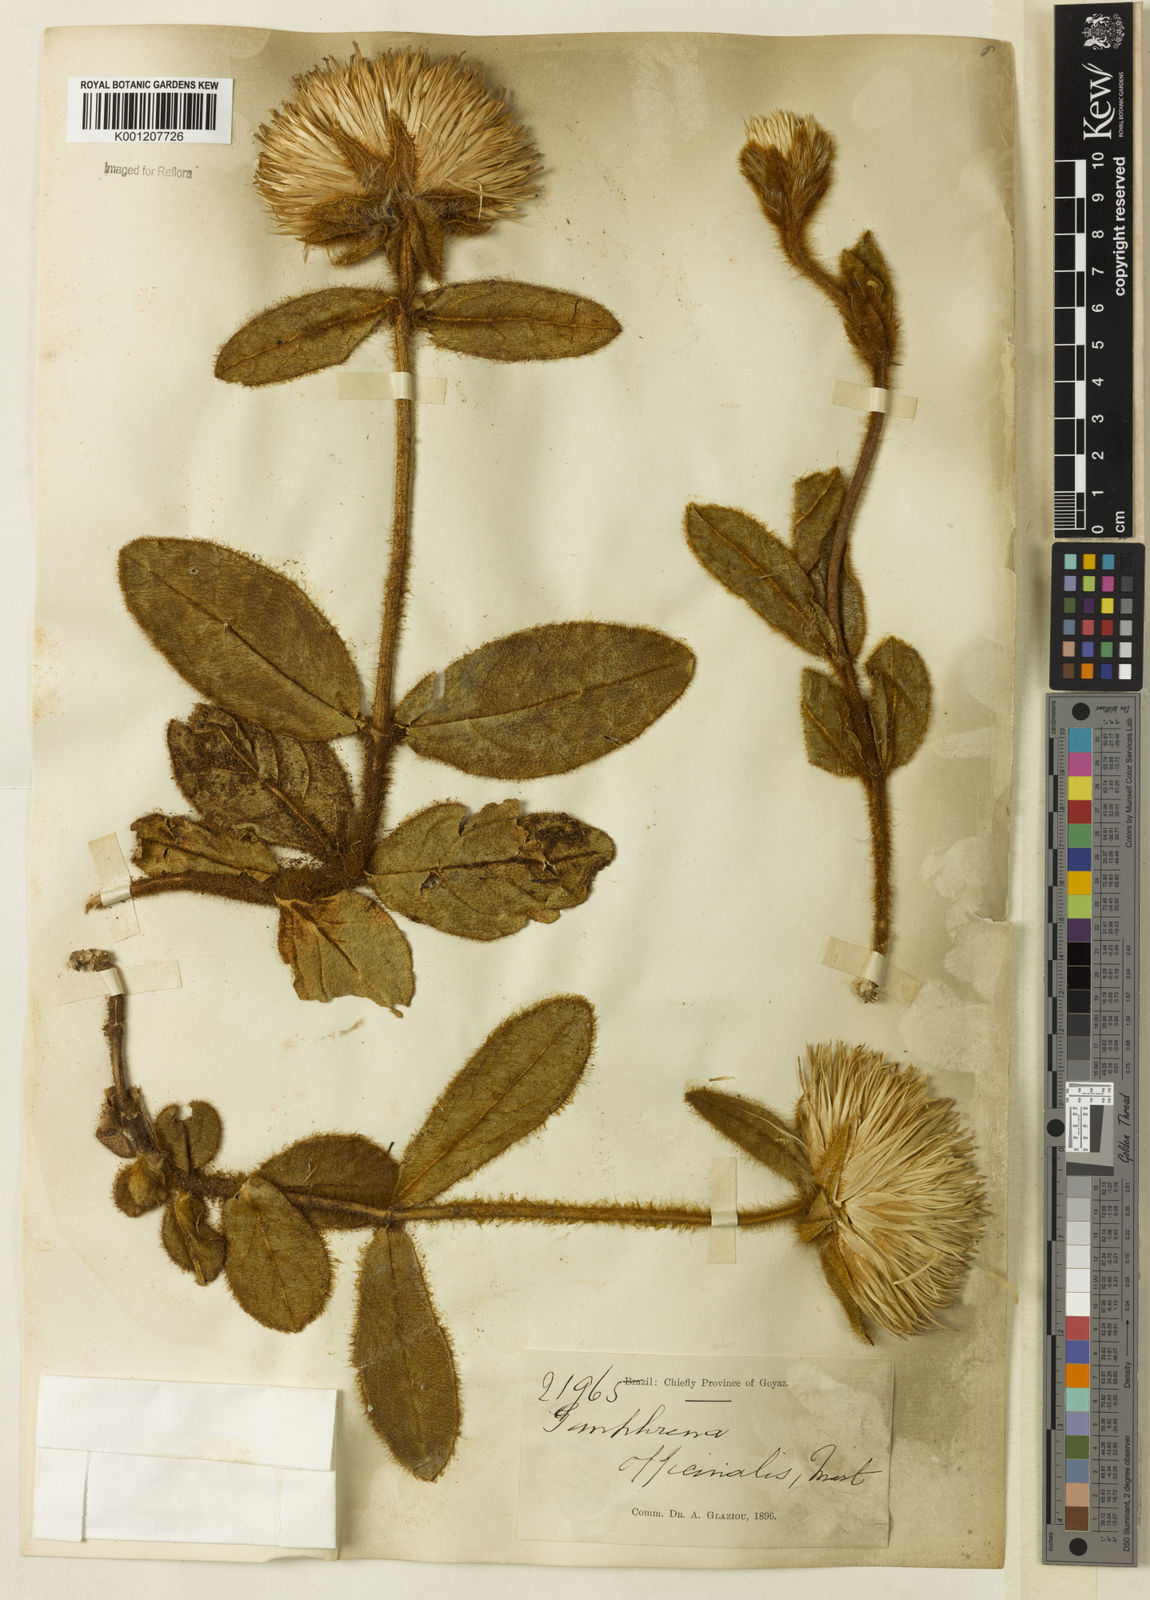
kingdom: Plantae
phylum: Tracheophyta
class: Magnoliopsida
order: Caryophyllales
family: Amaranthaceae
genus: Gomphrena
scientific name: Gomphrena arborescens
